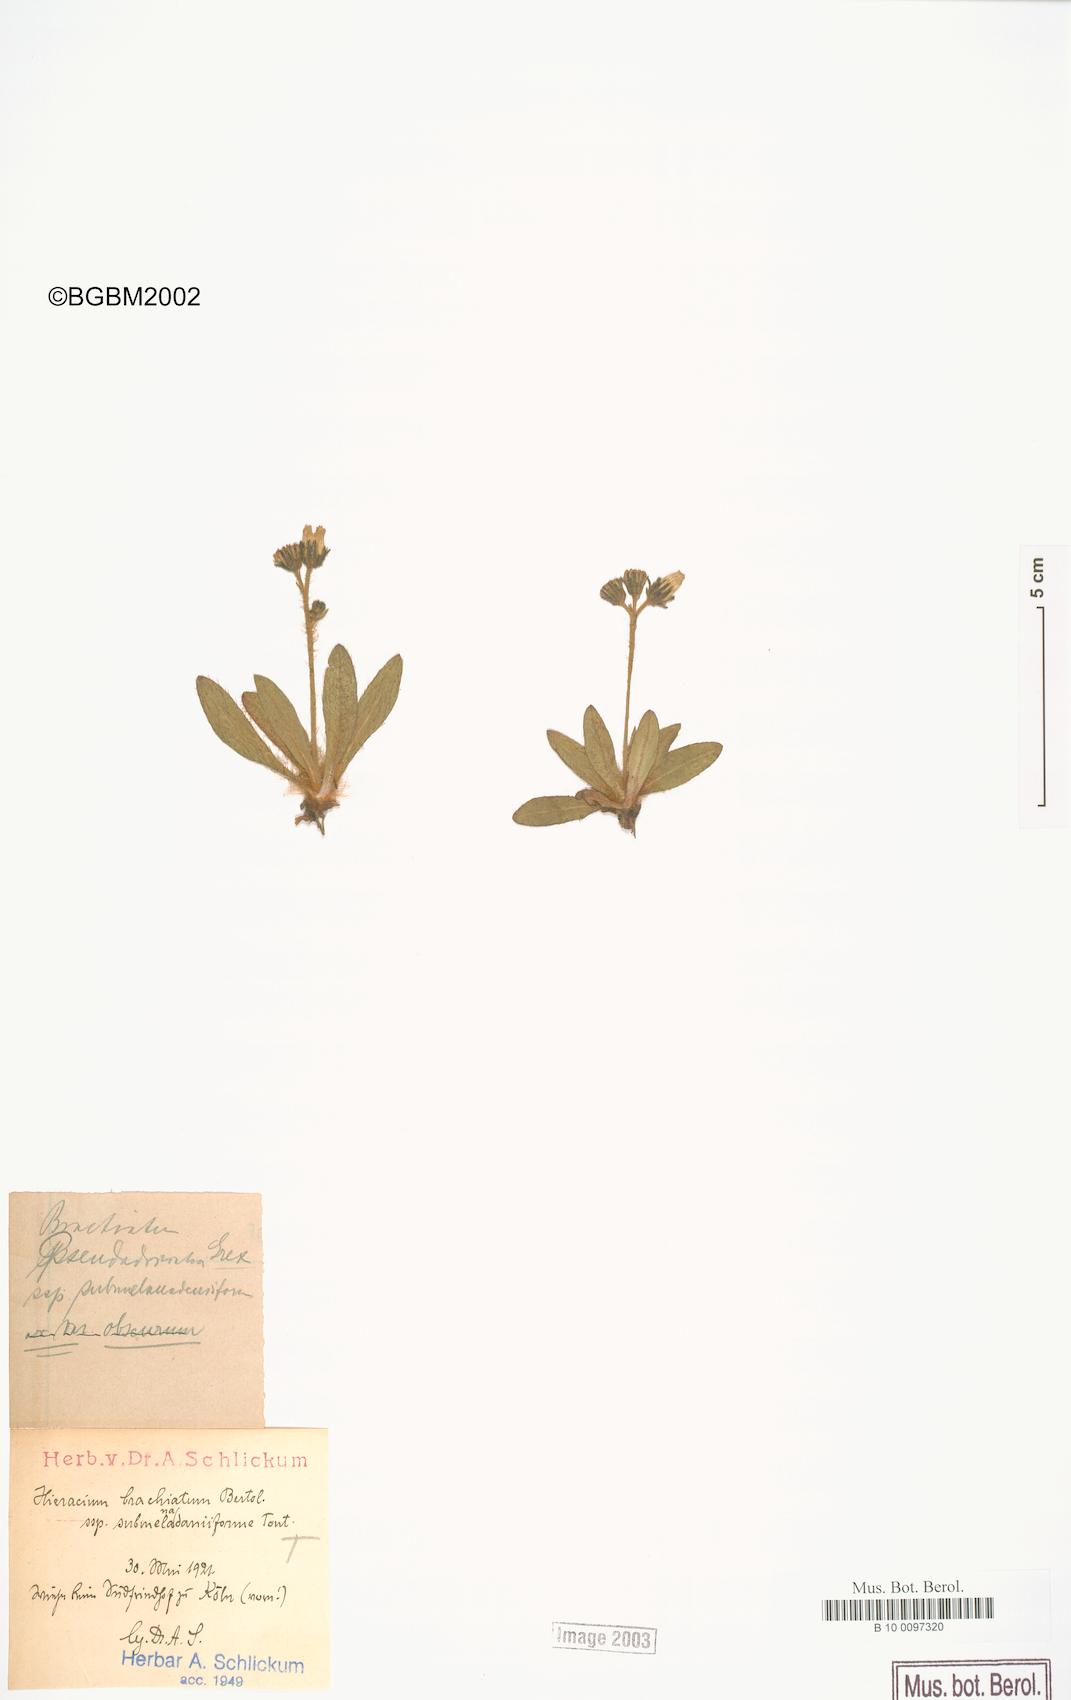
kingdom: Plantae
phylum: Tracheophyta
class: Magnoliopsida
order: Asterales
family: Asteraceae
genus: Pilosella
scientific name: Pilosella visianii
